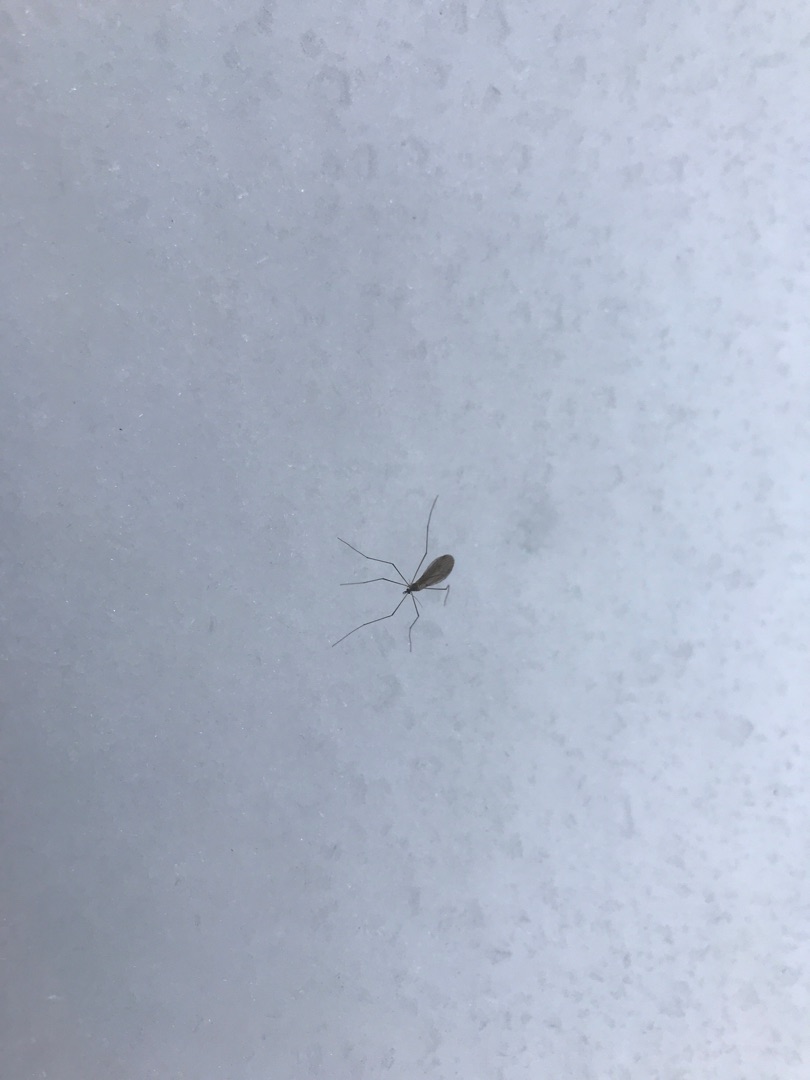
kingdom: Animalia
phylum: Arthropoda
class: Insecta
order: Diptera
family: Trichoceridae
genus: Trichocera
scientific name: Trichocera
